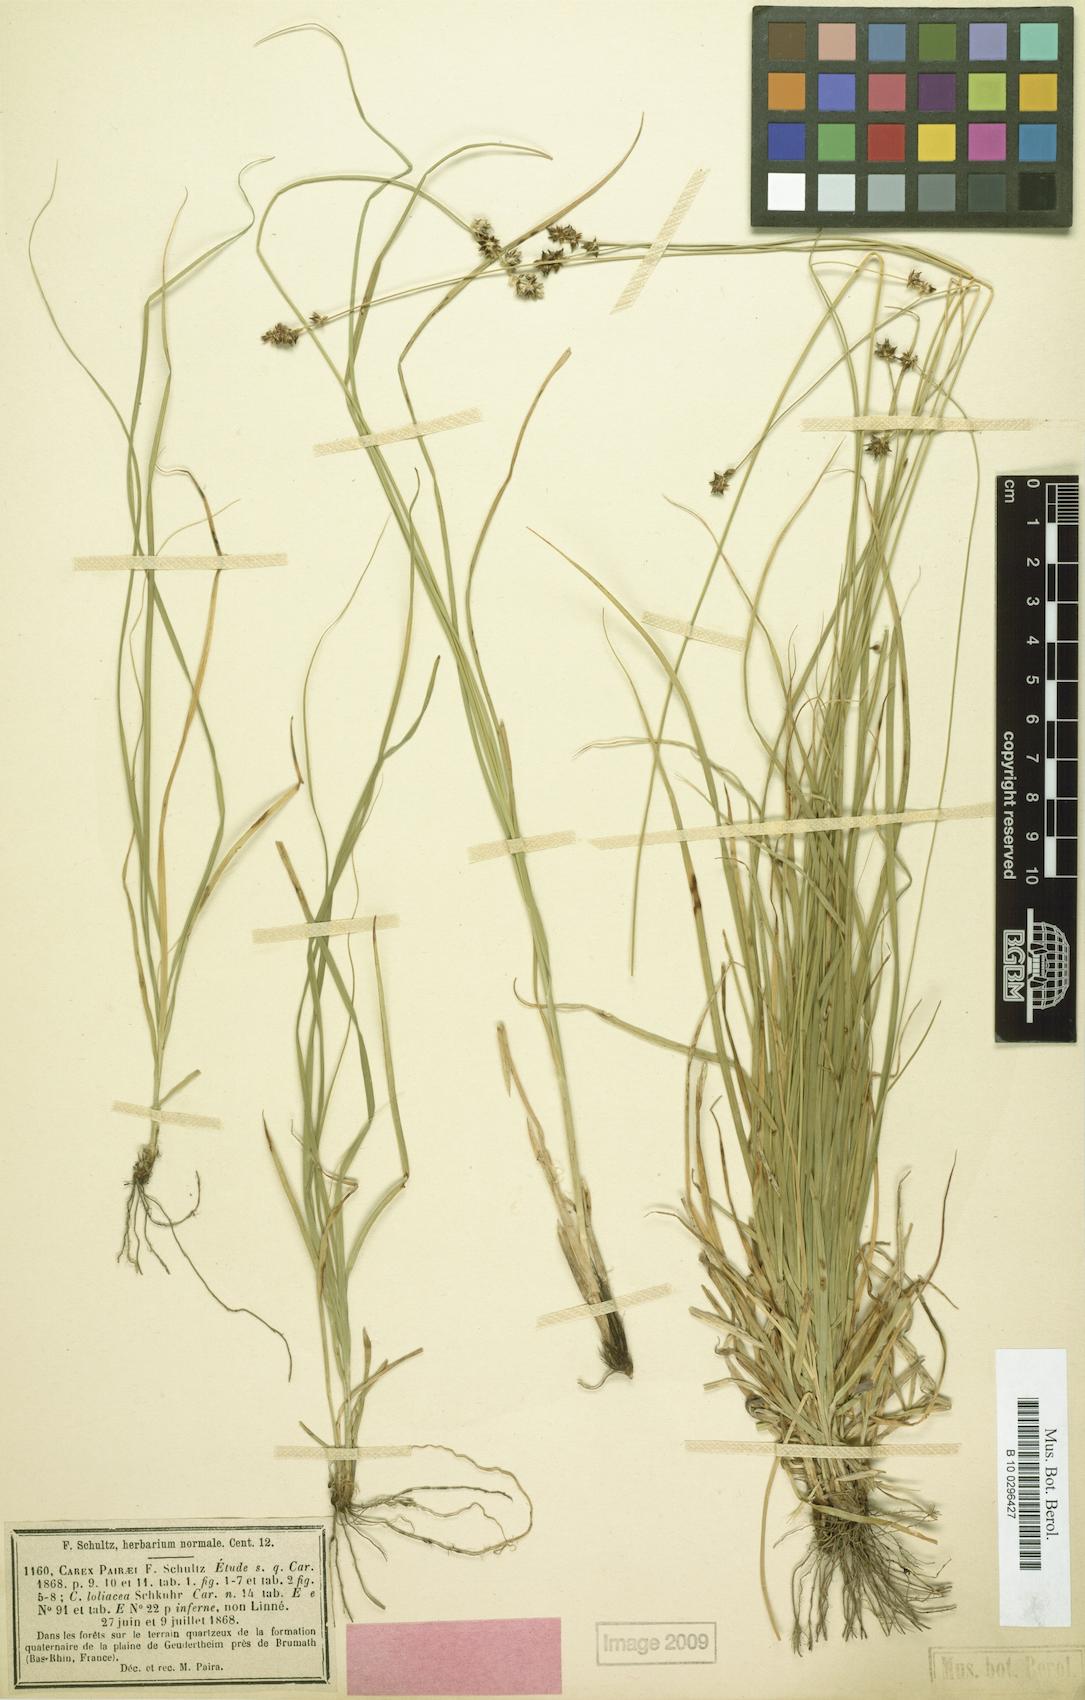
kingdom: Plantae
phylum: Tracheophyta
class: Liliopsida
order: Poales
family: Cyperaceae
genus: Carex
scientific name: Carex pairae
